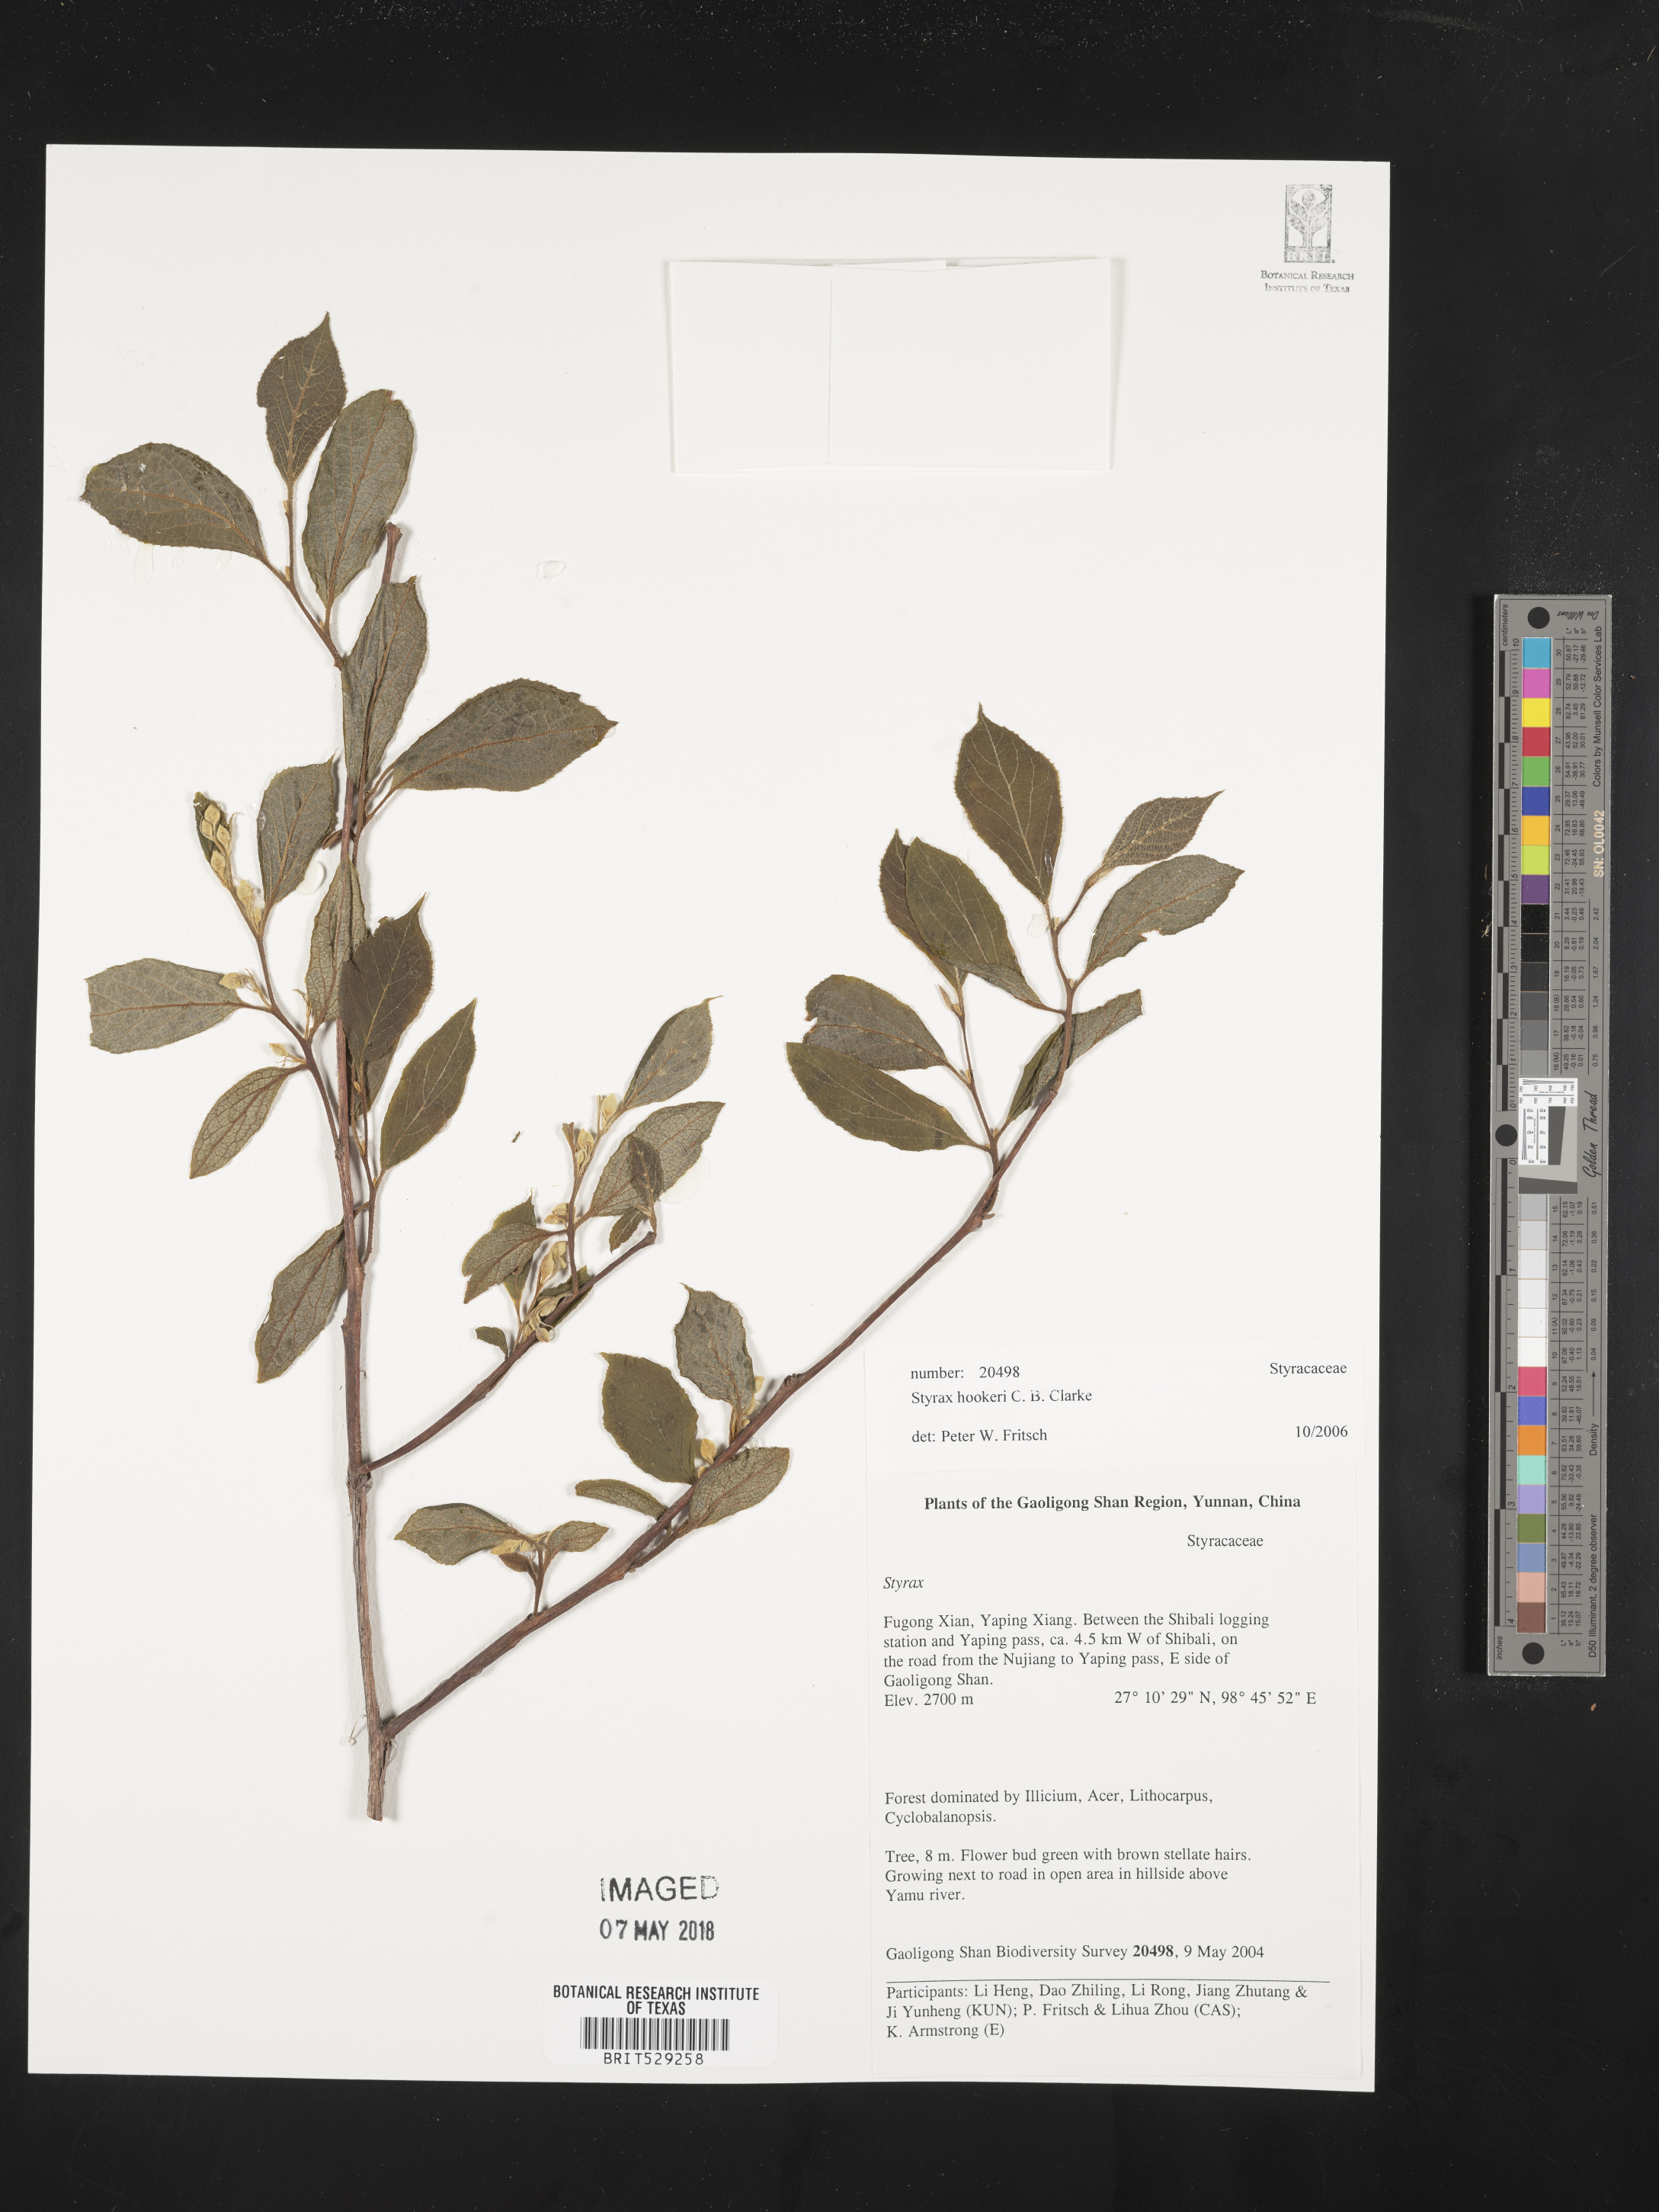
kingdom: Plantae
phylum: Tracheophyta
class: Magnoliopsida
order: Ericales
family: Styracaceae
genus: Styrax
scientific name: Styrax hookeri
